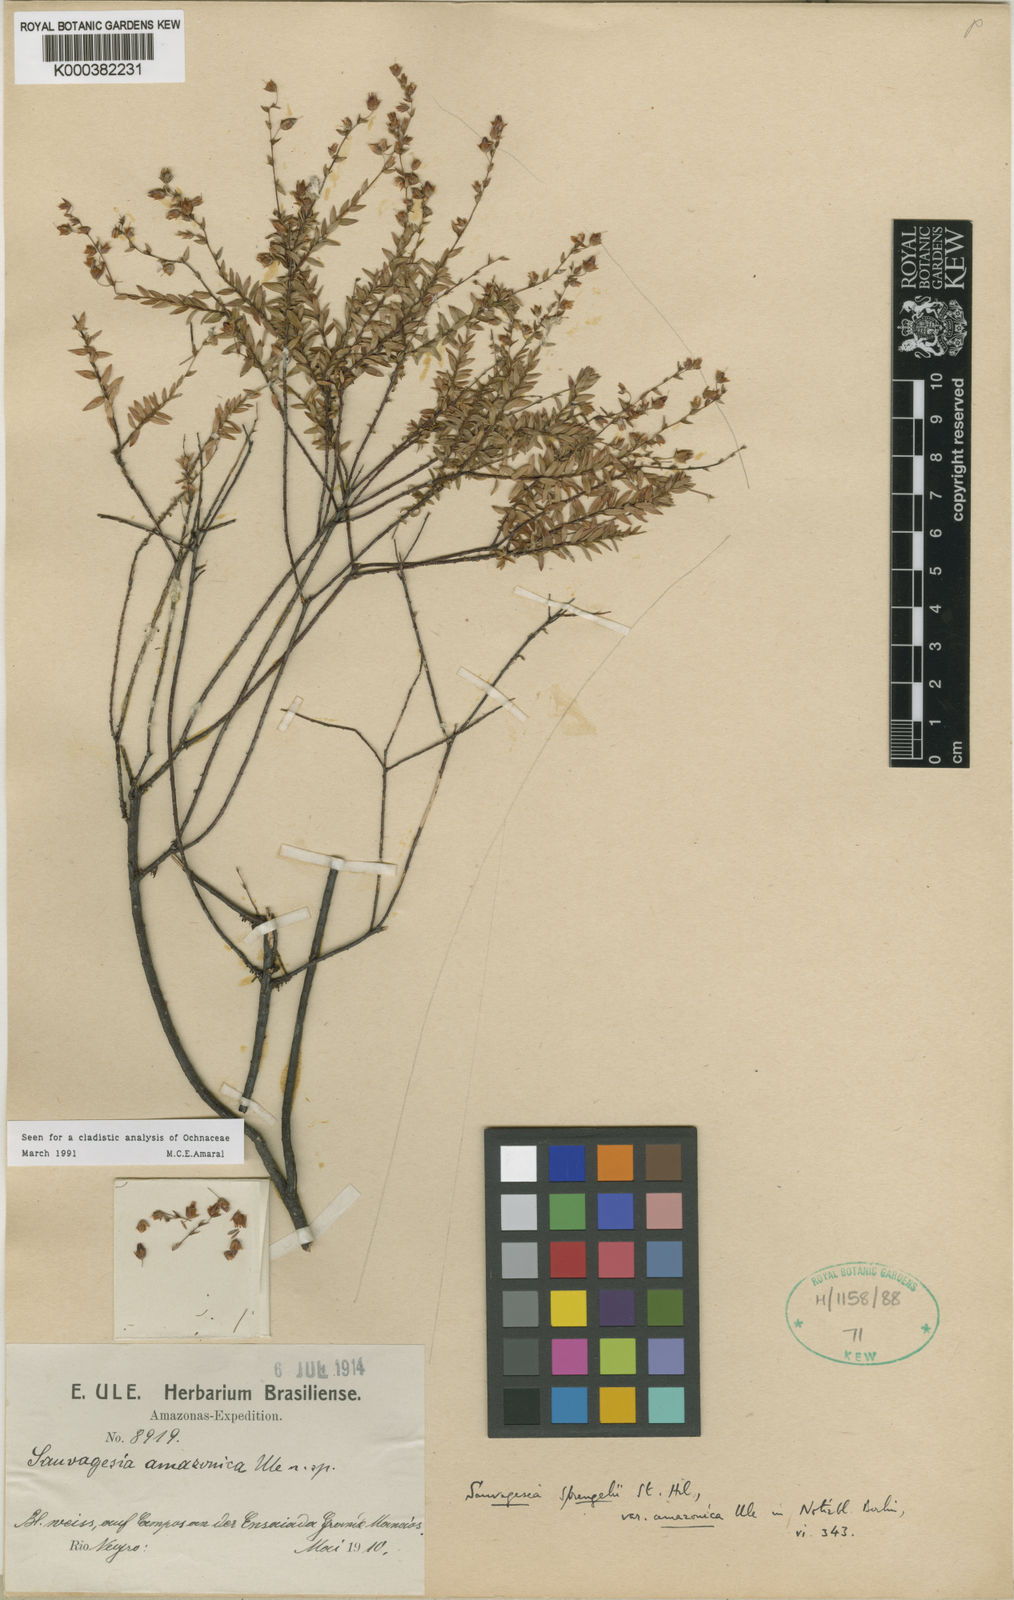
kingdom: Plantae
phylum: Tracheophyta
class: Magnoliopsida
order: Malpighiales
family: Ochnaceae
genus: Sauvagesia
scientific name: Sauvagesia sprengelii
